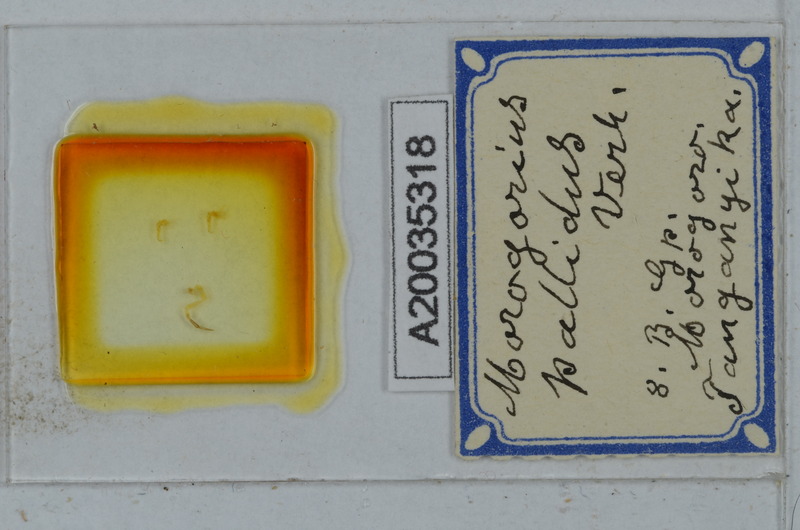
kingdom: Animalia
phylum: Arthropoda
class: Diplopoda
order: Polydesmida
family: Chelodesmidae
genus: Morogorius
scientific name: Morogorius pallidus
